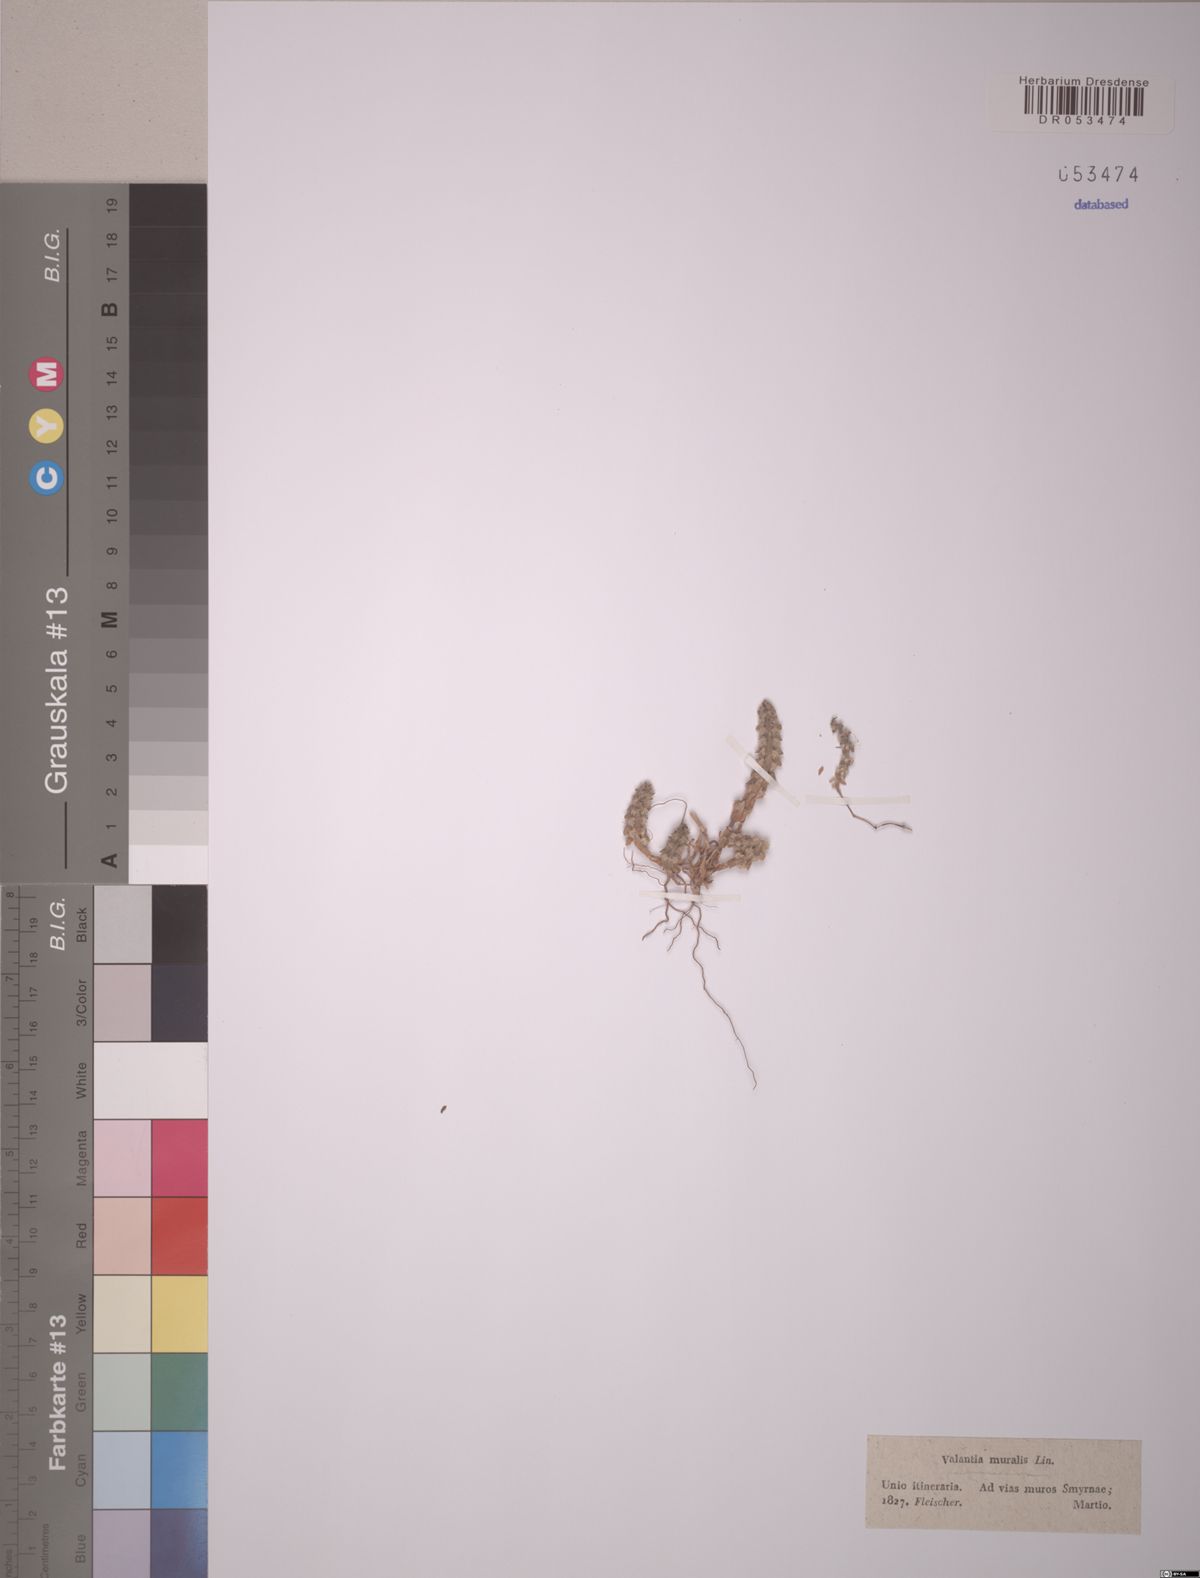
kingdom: Plantae
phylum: Tracheophyta
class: Magnoliopsida
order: Gentianales
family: Rubiaceae
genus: Valantia
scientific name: Valantia muralis
